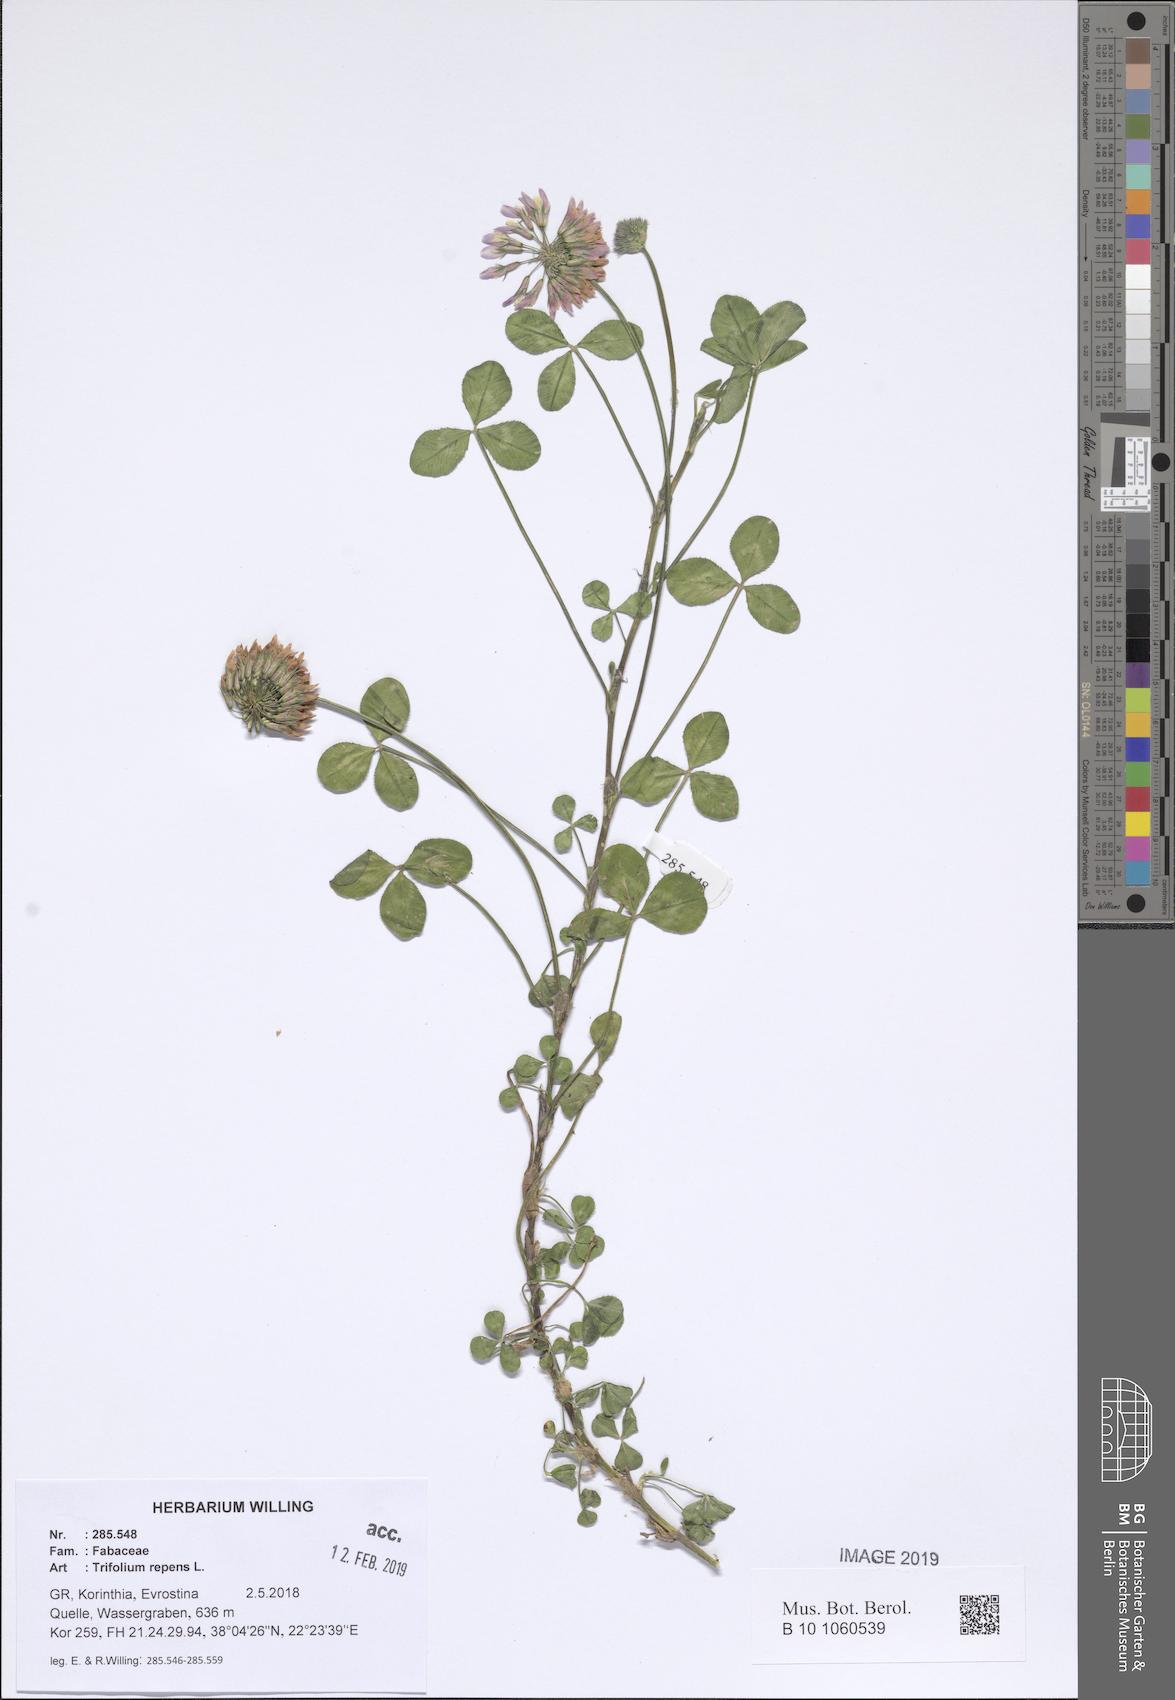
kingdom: Plantae
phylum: Tracheophyta
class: Magnoliopsida
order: Fabales
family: Fabaceae
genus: Trifolium
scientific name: Trifolium repens
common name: White clover
